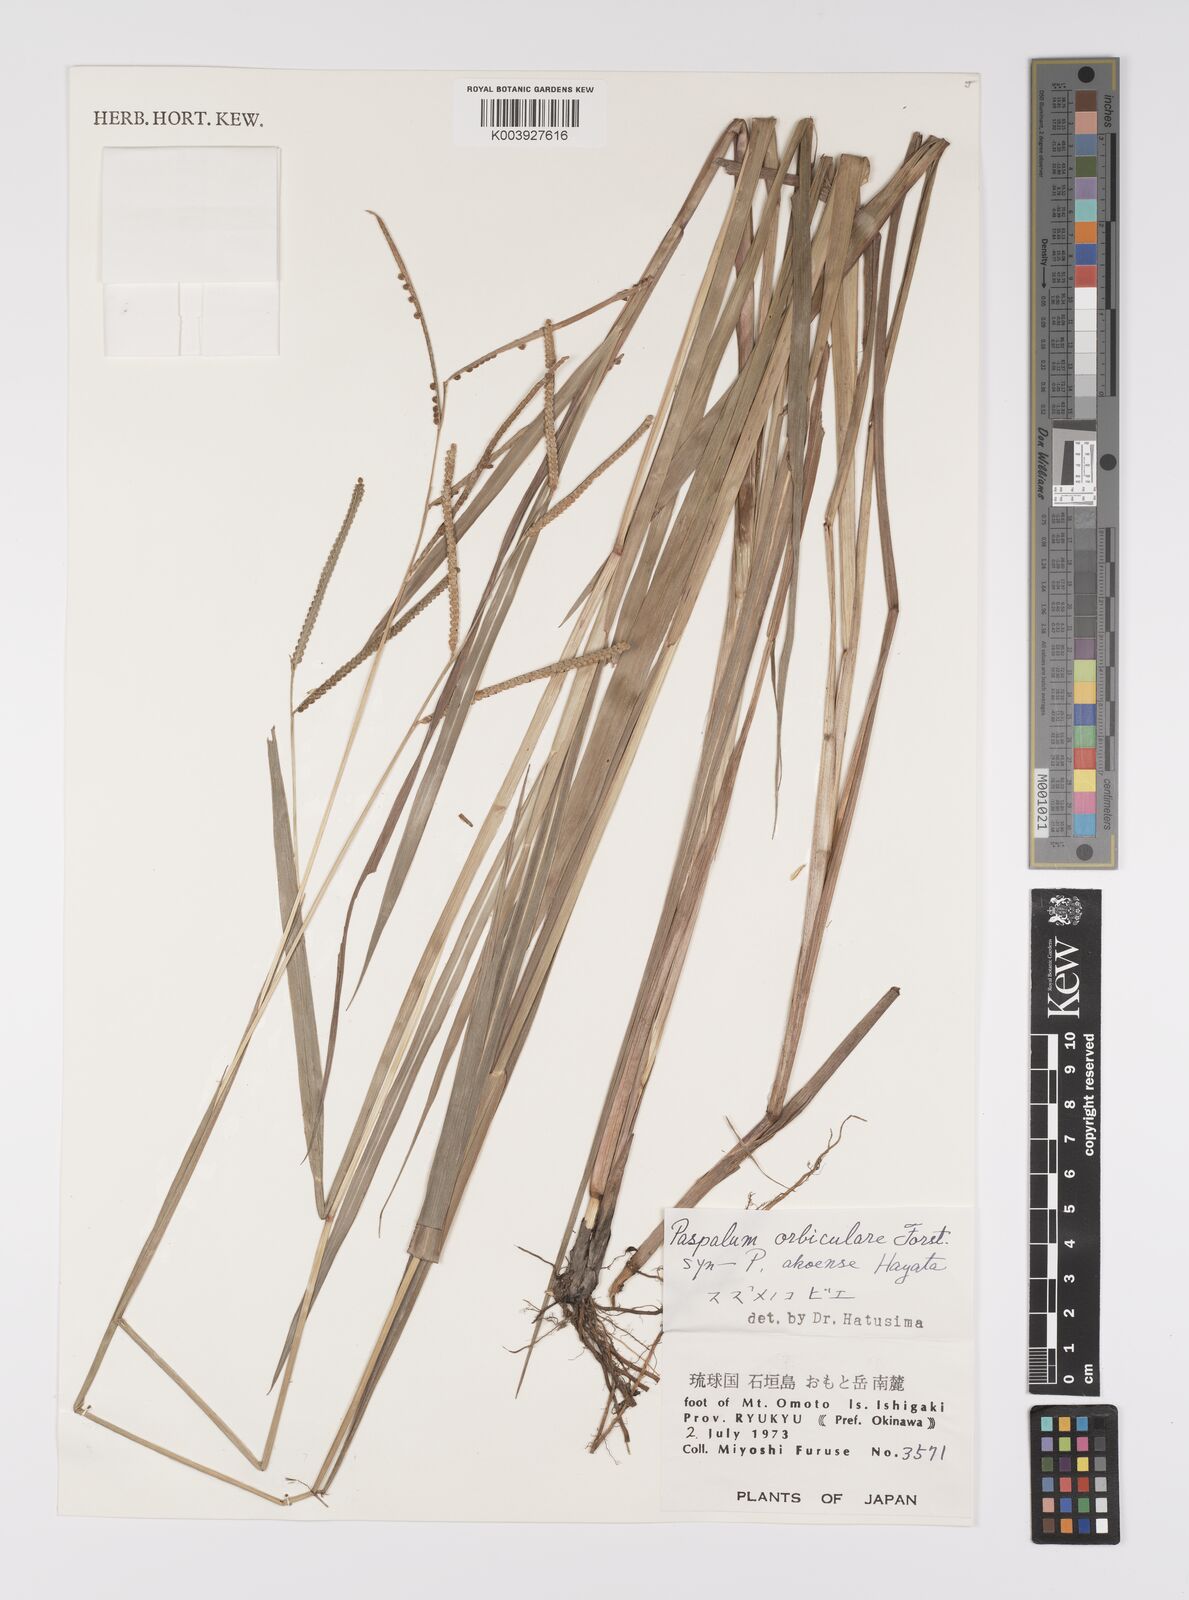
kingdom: Plantae
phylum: Tracheophyta
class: Liliopsida
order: Poales
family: Poaceae
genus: Paspalum
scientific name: Paspalum scrobiculatum
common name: Kodo millet
